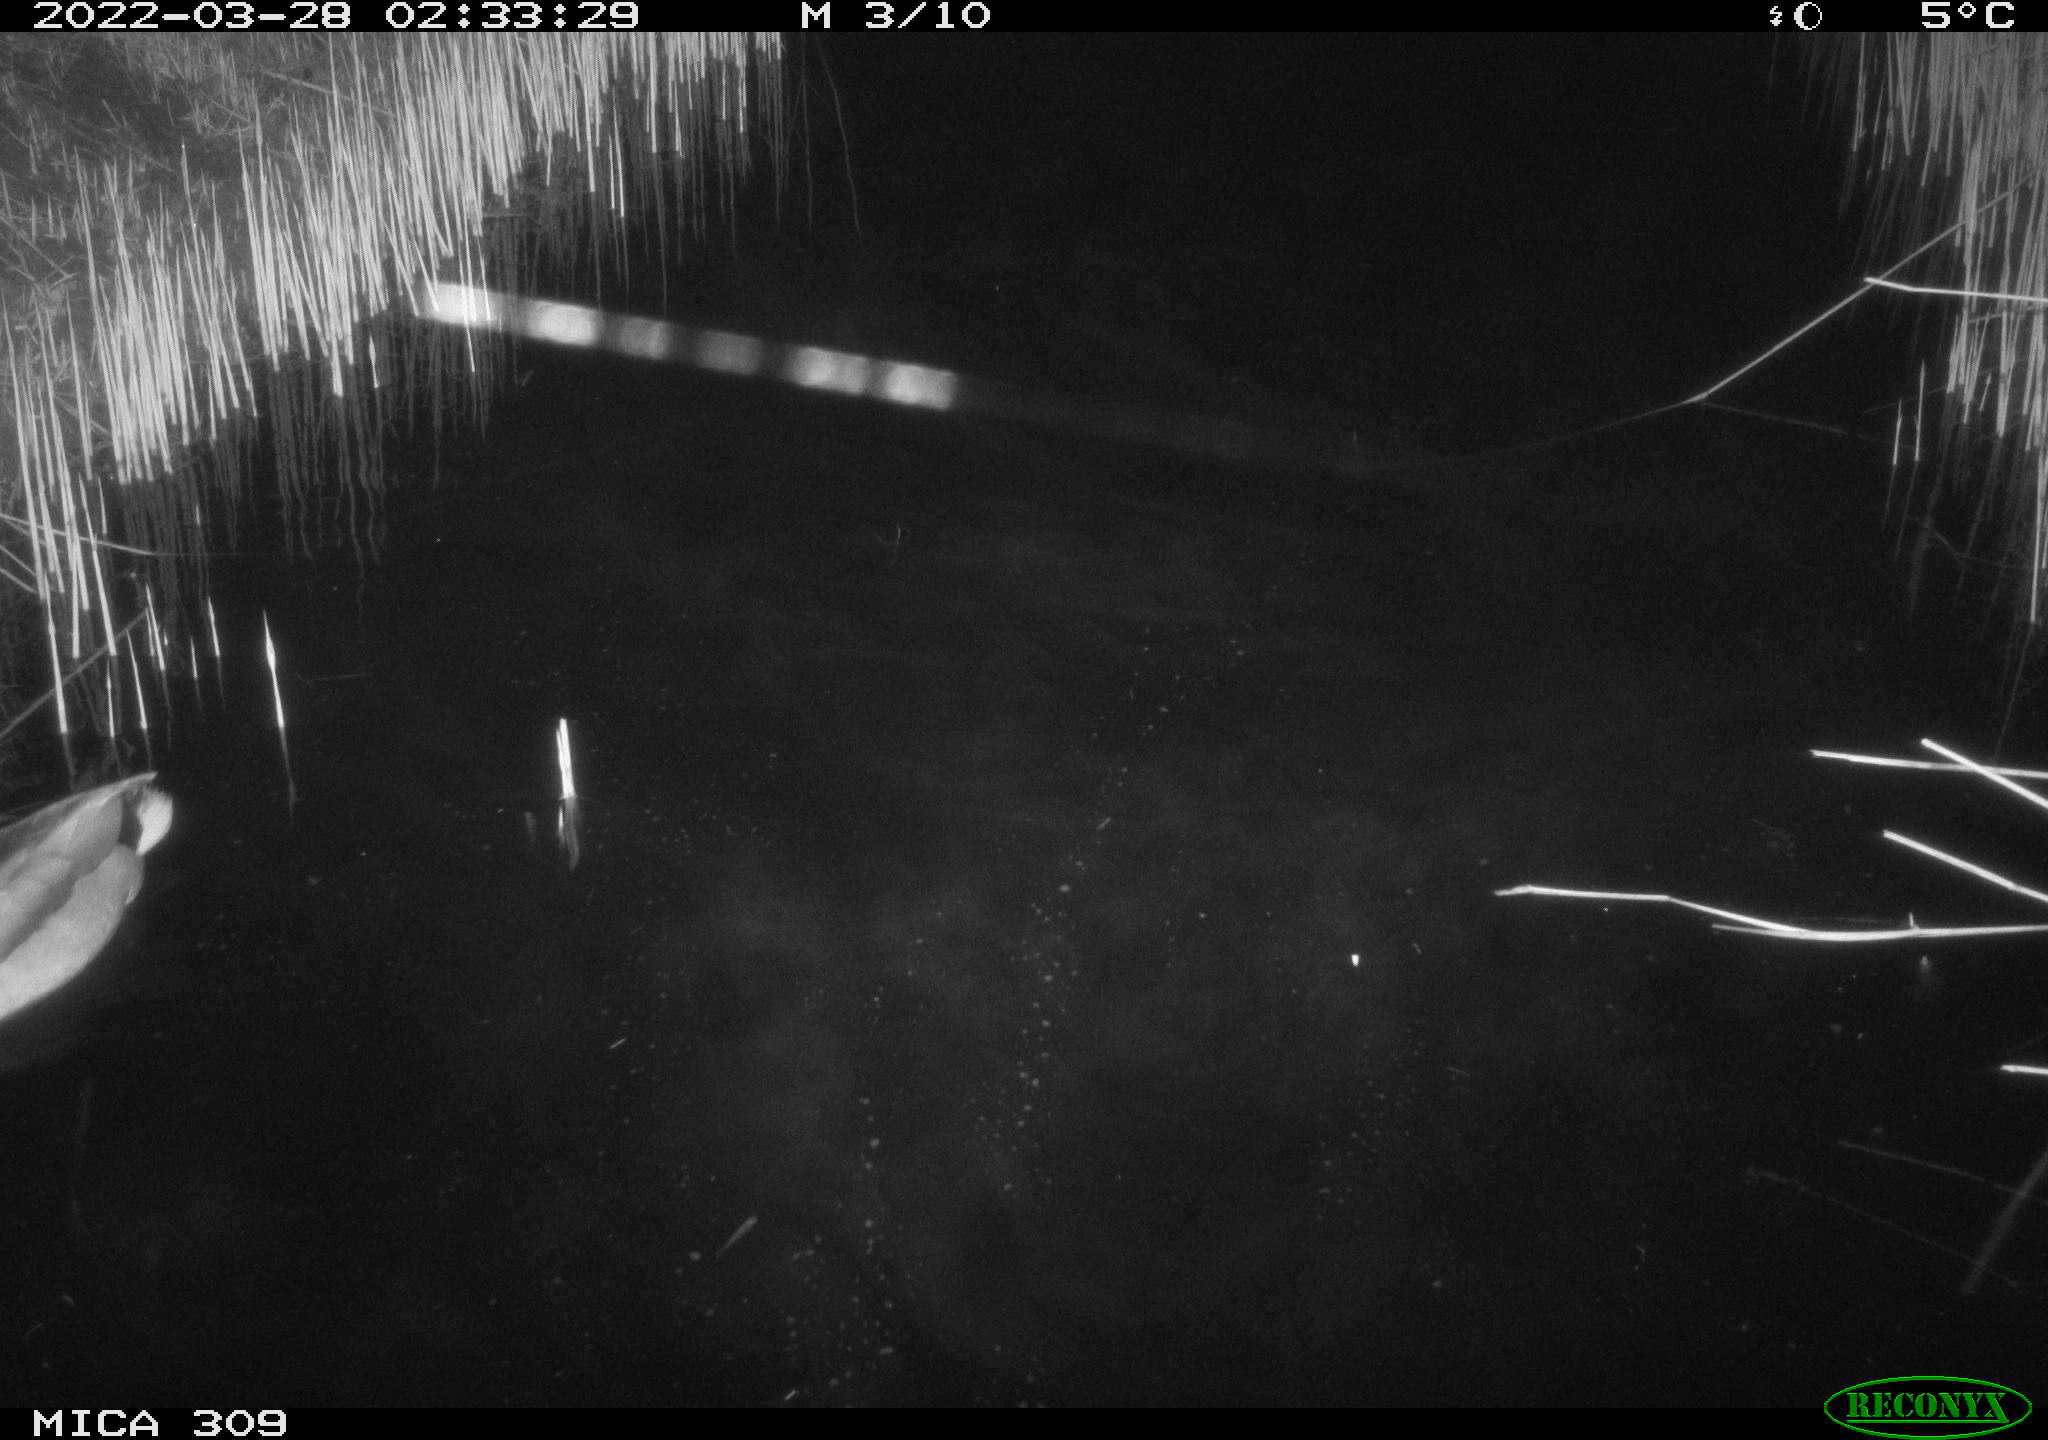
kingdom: Animalia
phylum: Chordata
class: Aves
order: Anseriformes
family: Anatidae
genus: Anas
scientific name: Anas platyrhynchos
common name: Mallard
